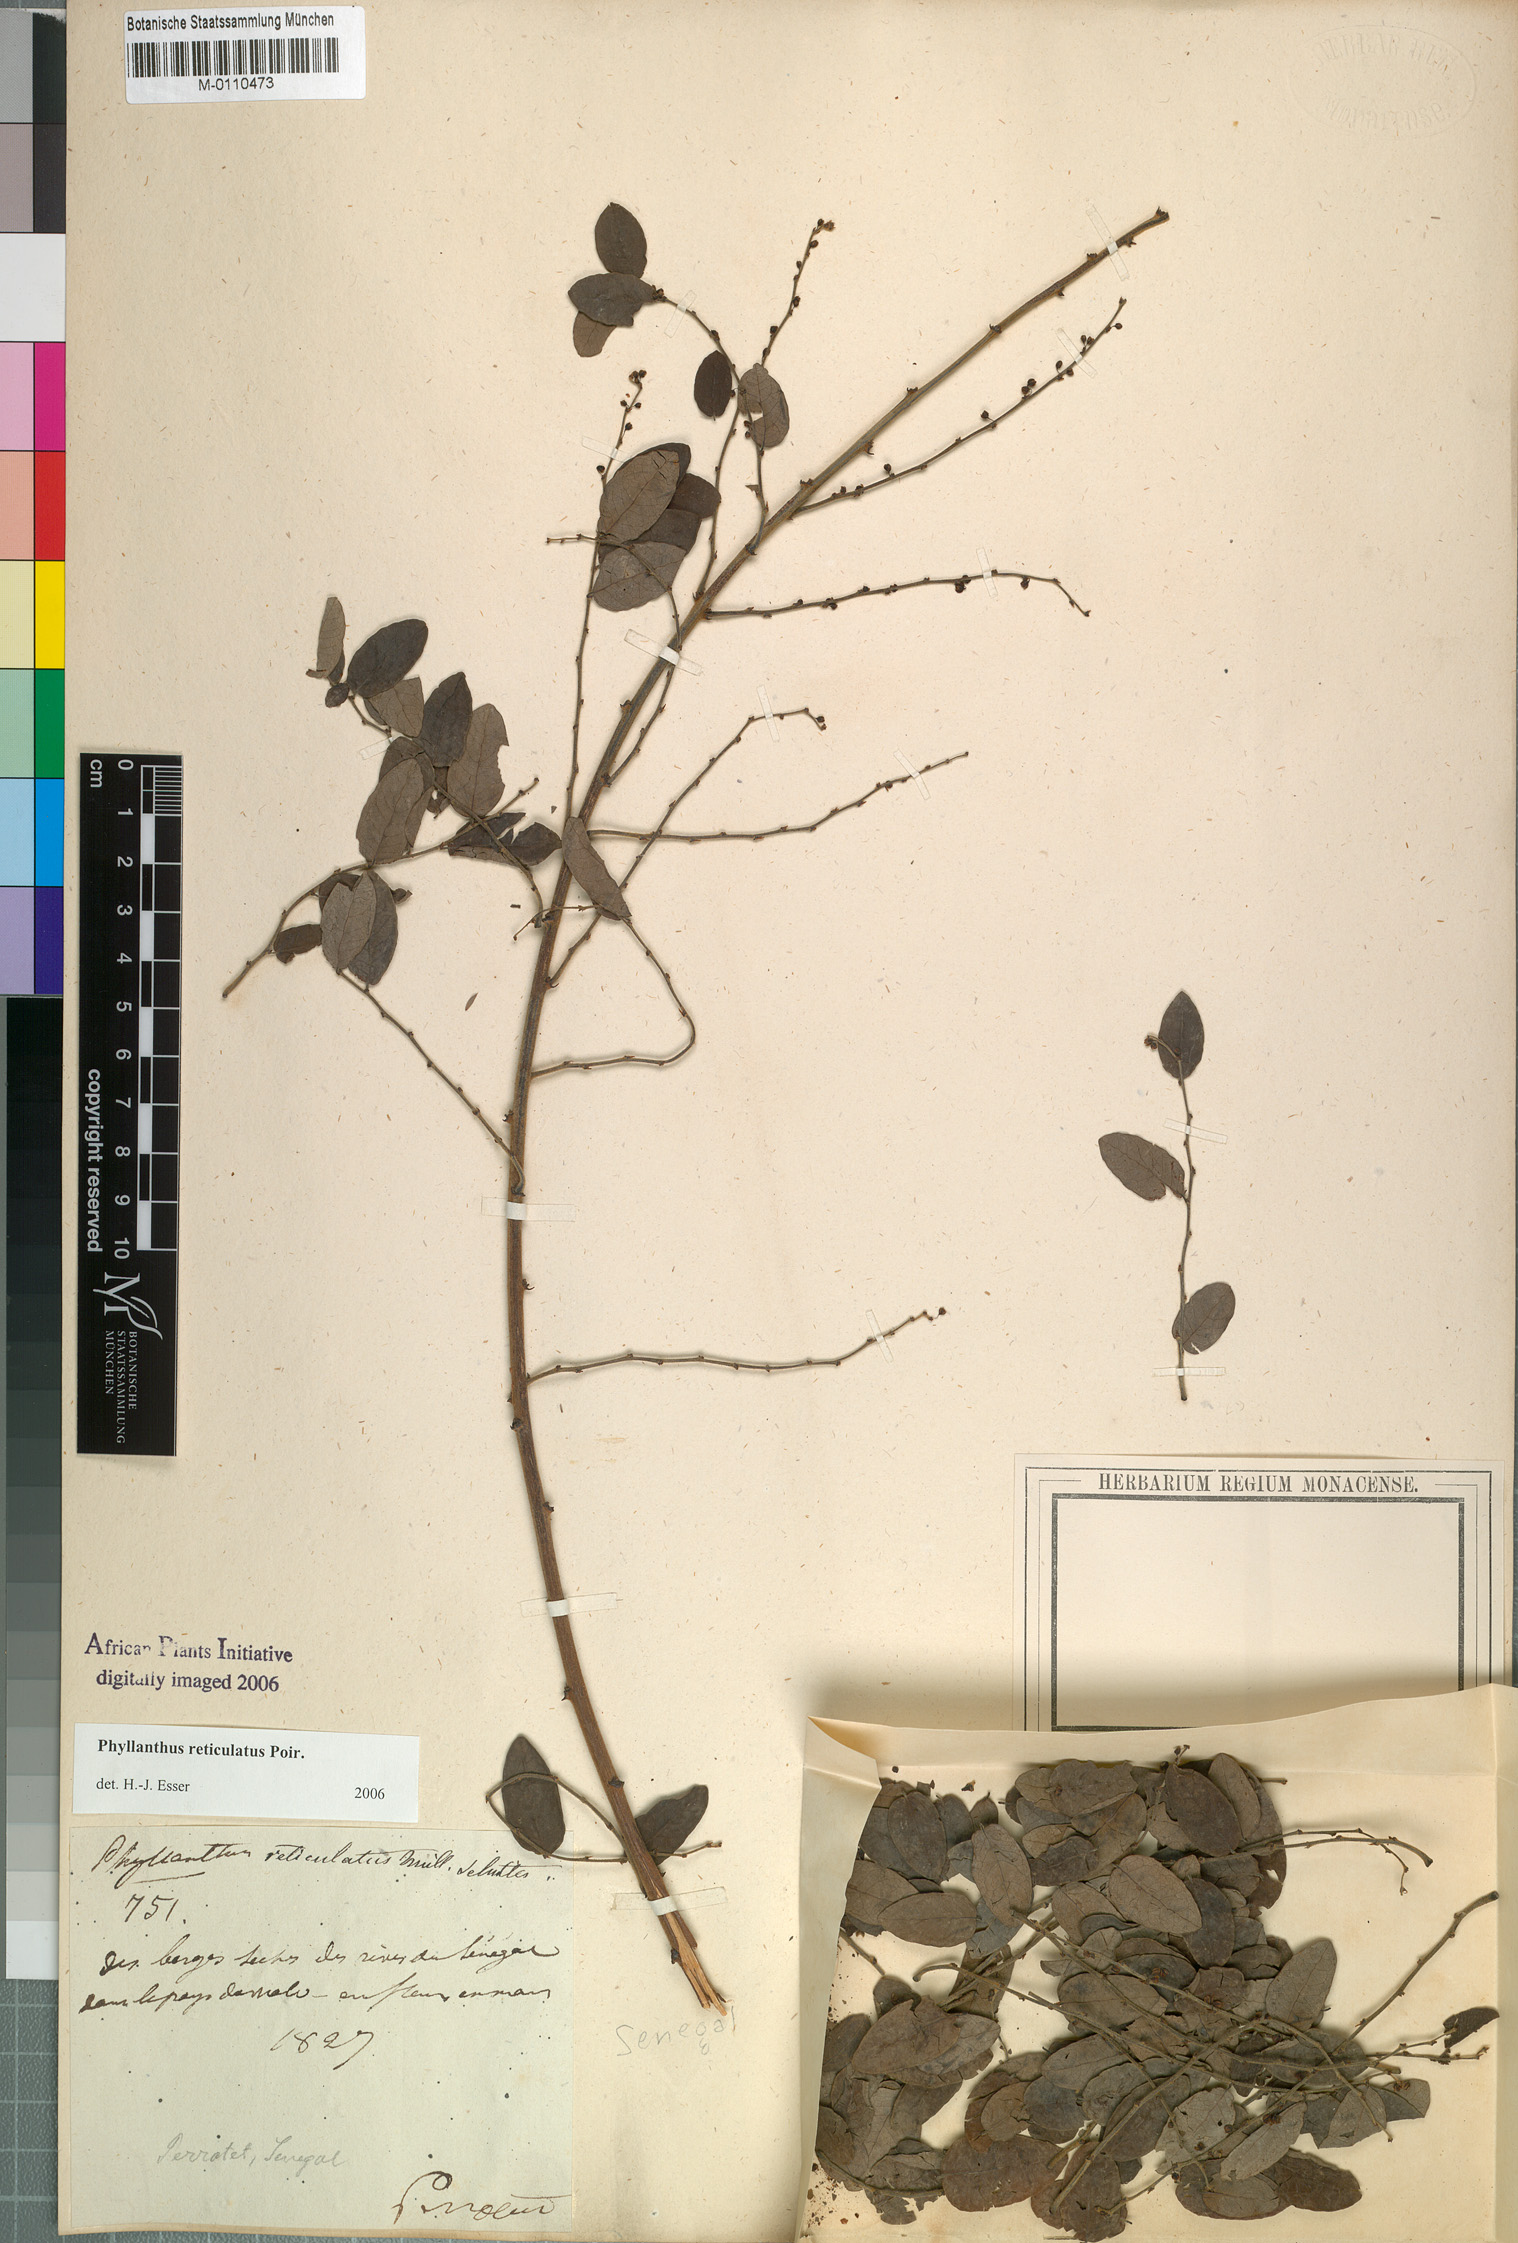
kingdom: Plantae
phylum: Tracheophyta
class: Magnoliopsida
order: Malpighiales
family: Phyllanthaceae
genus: Phyllanthus
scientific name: Phyllanthus reticulatus
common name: Potato bush
